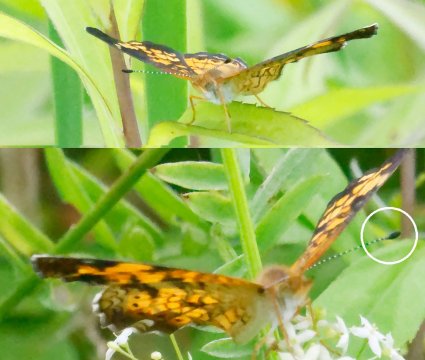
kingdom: Animalia
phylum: Arthropoda
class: Insecta
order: Lepidoptera
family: Nymphalidae
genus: Phyciodes
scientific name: Phyciodes tharos
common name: Pearl Crescent
